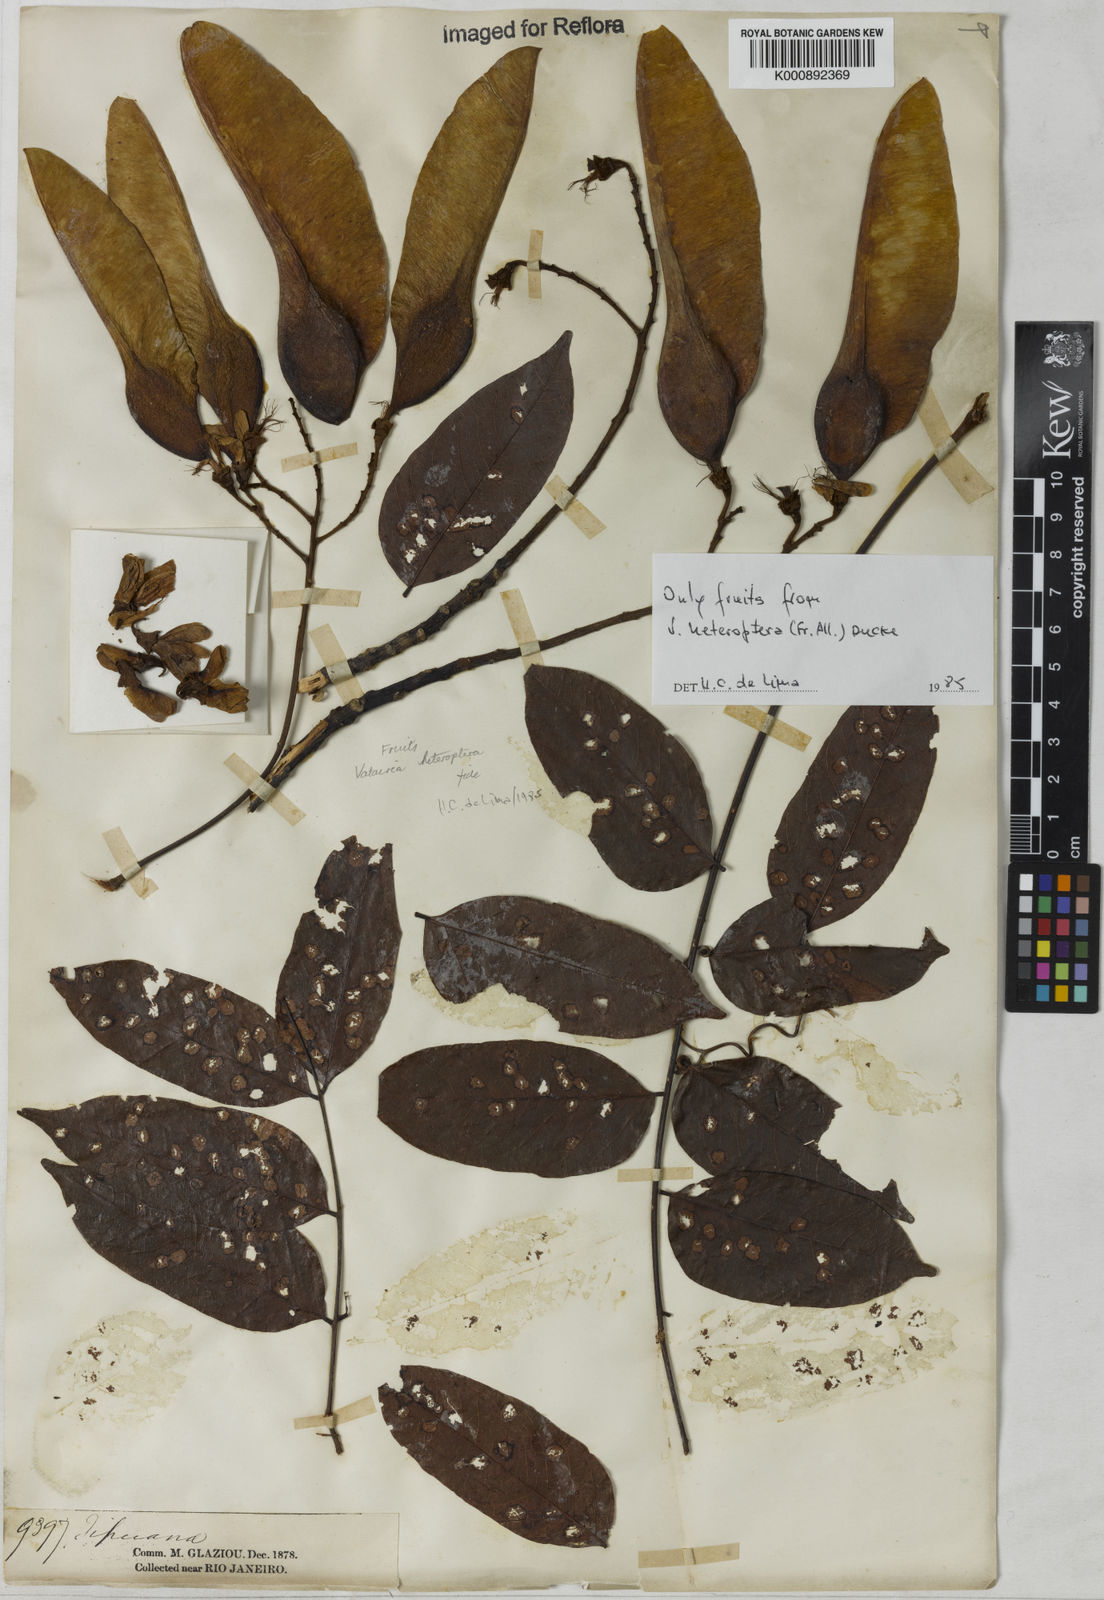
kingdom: Plantae
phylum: Tracheophyta
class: Magnoliopsida
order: Fabales
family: Fabaceae
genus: Vatairea
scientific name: Vatairea
